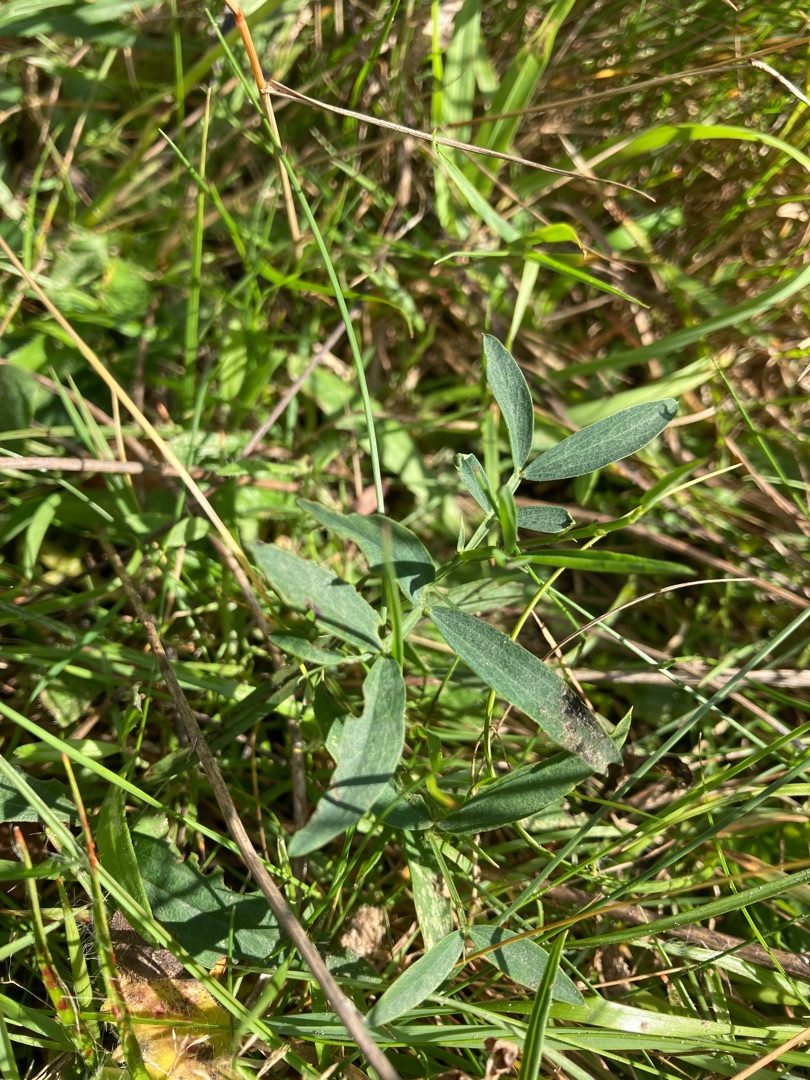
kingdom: Plantae
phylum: Tracheophyta
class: Magnoliopsida
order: Fabales
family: Fabaceae
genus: Lathyrus
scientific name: Lathyrus linifolius
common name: Krat-fladbælg
